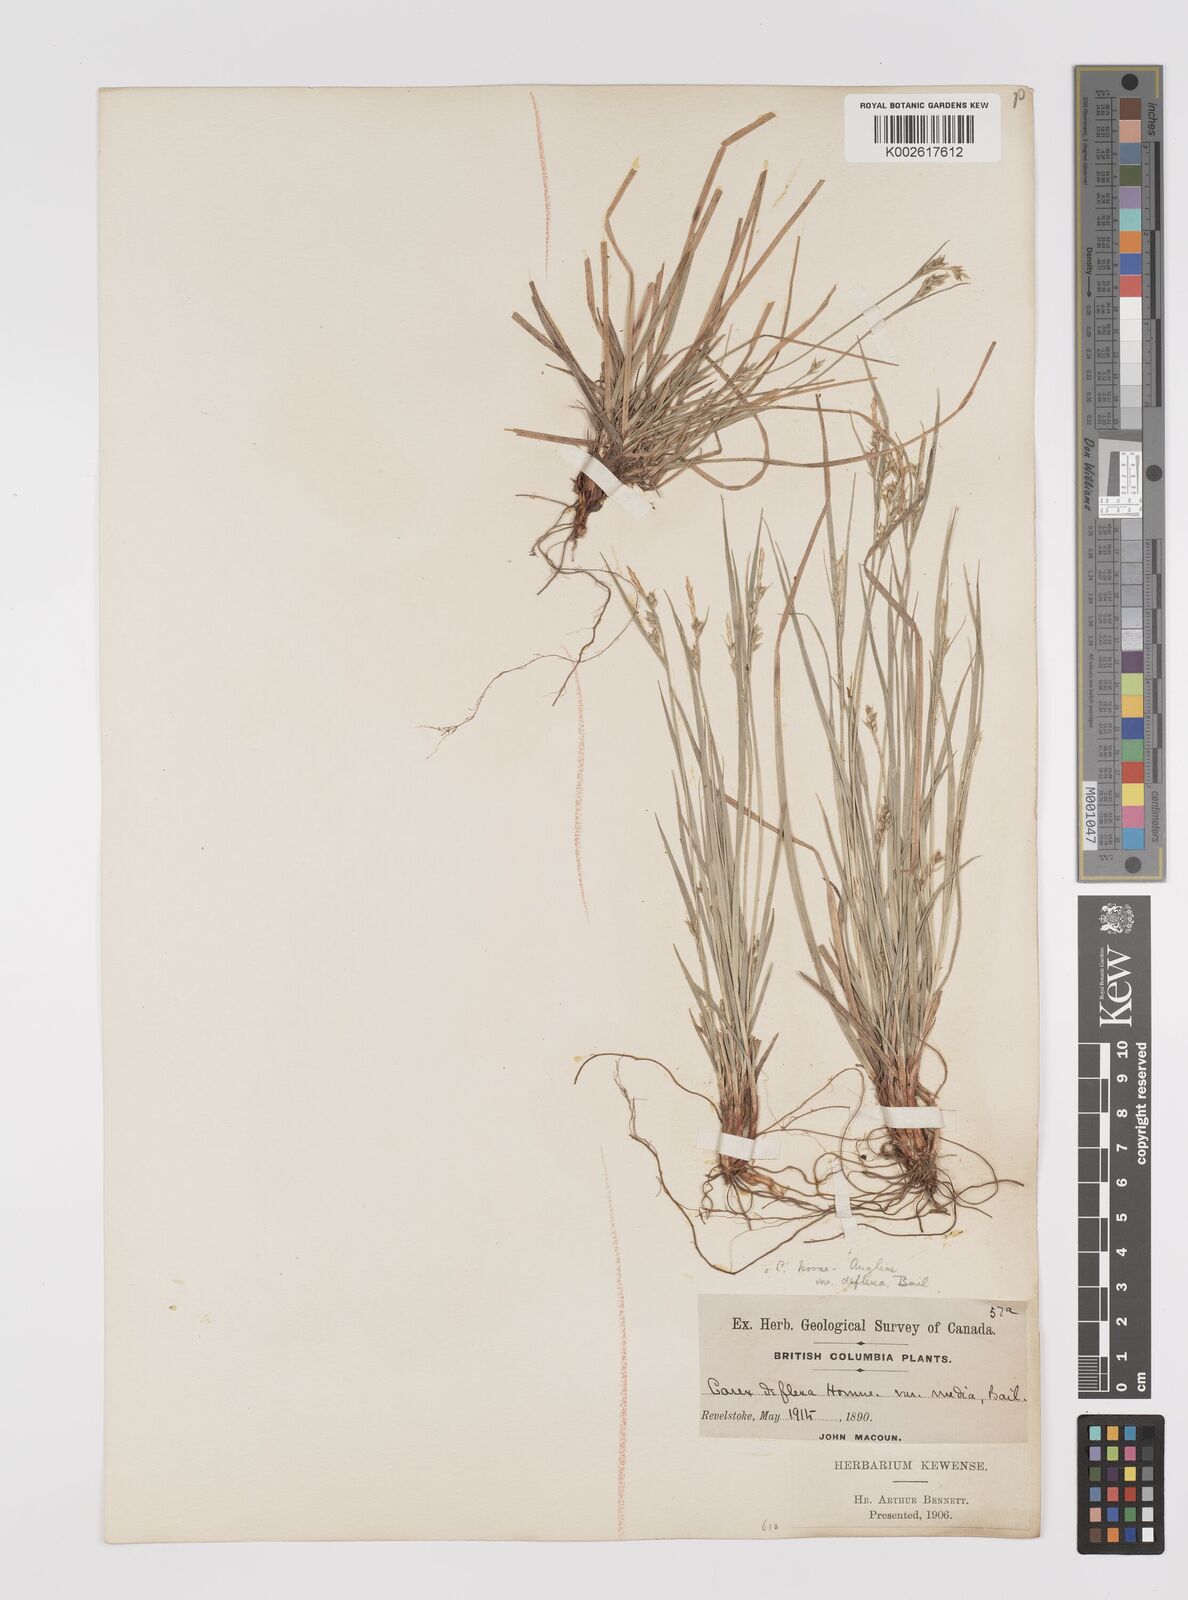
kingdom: Plantae
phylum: Tracheophyta
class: Liliopsida
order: Poales
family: Cyperaceae
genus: Carex
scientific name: Carex rossii
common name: Ross' sedge
